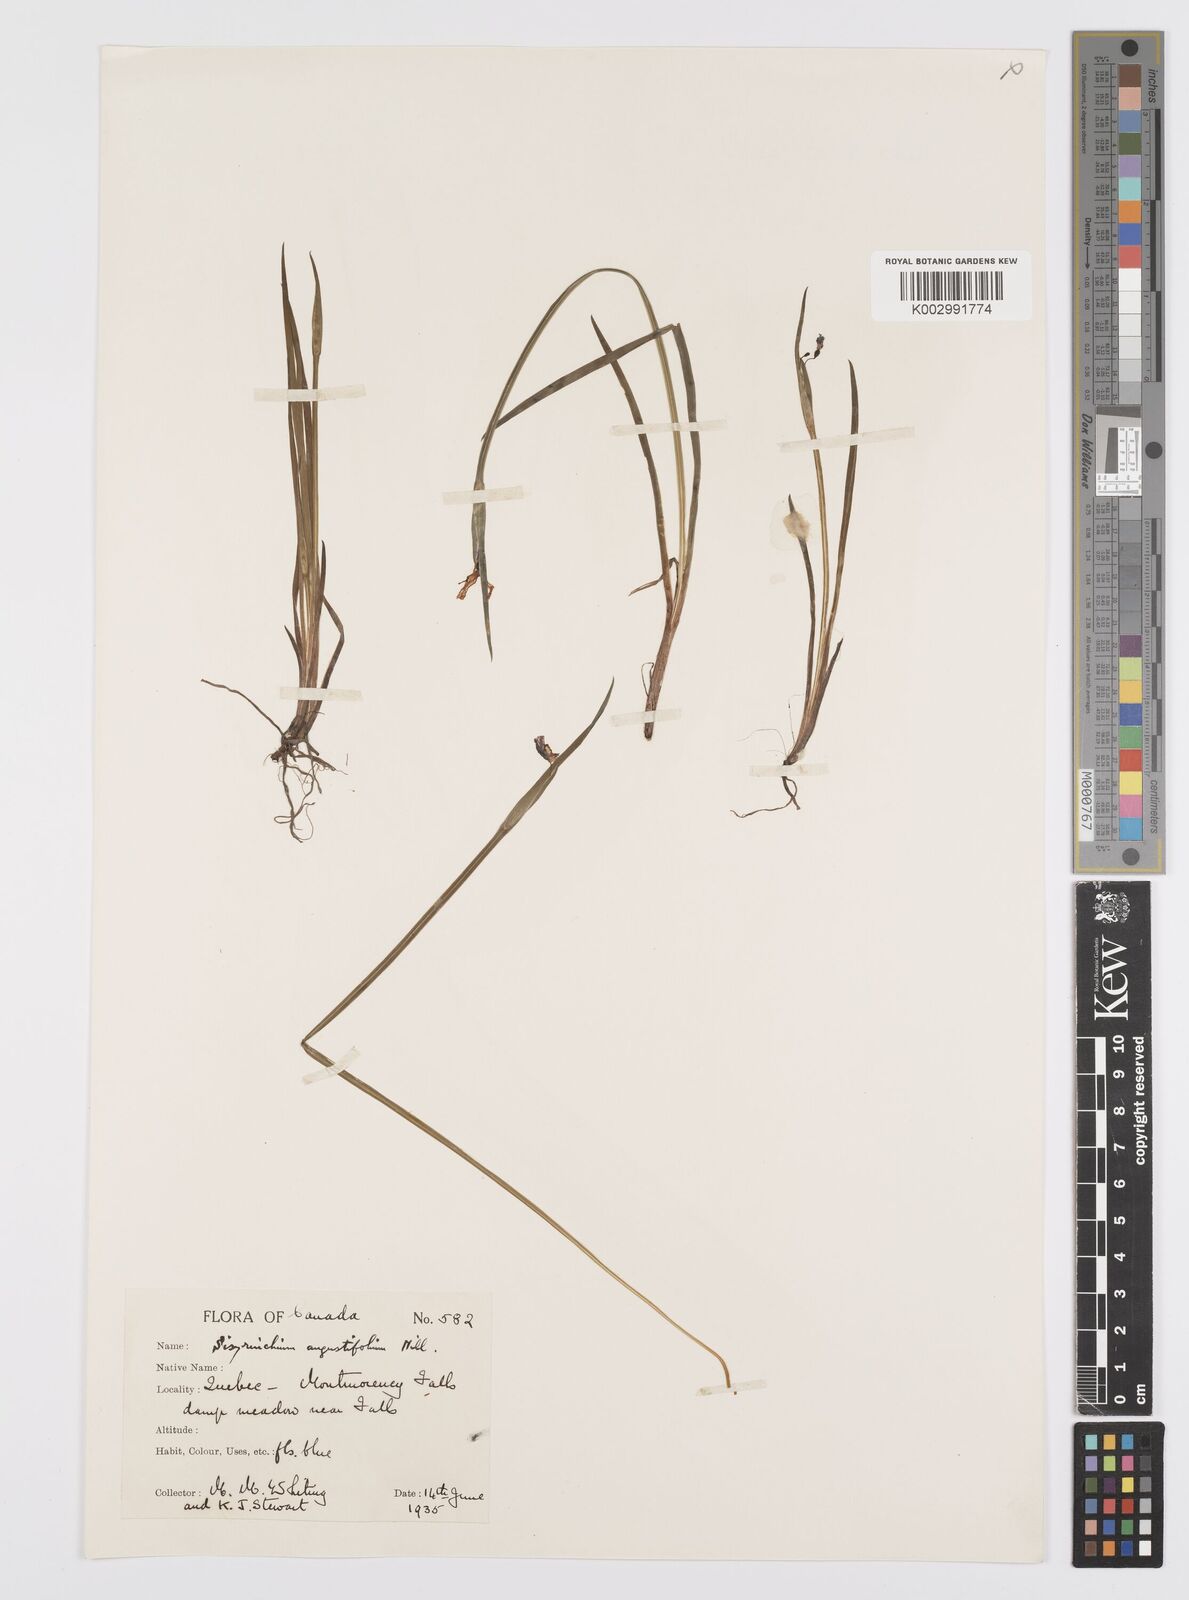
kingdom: Plantae
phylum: Tracheophyta
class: Liliopsida
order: Asparagales
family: Iridaceae
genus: Sisyrinchium
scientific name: Sisyrinchium angustifolium
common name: Narrow-leaf blue-eyed-grass
